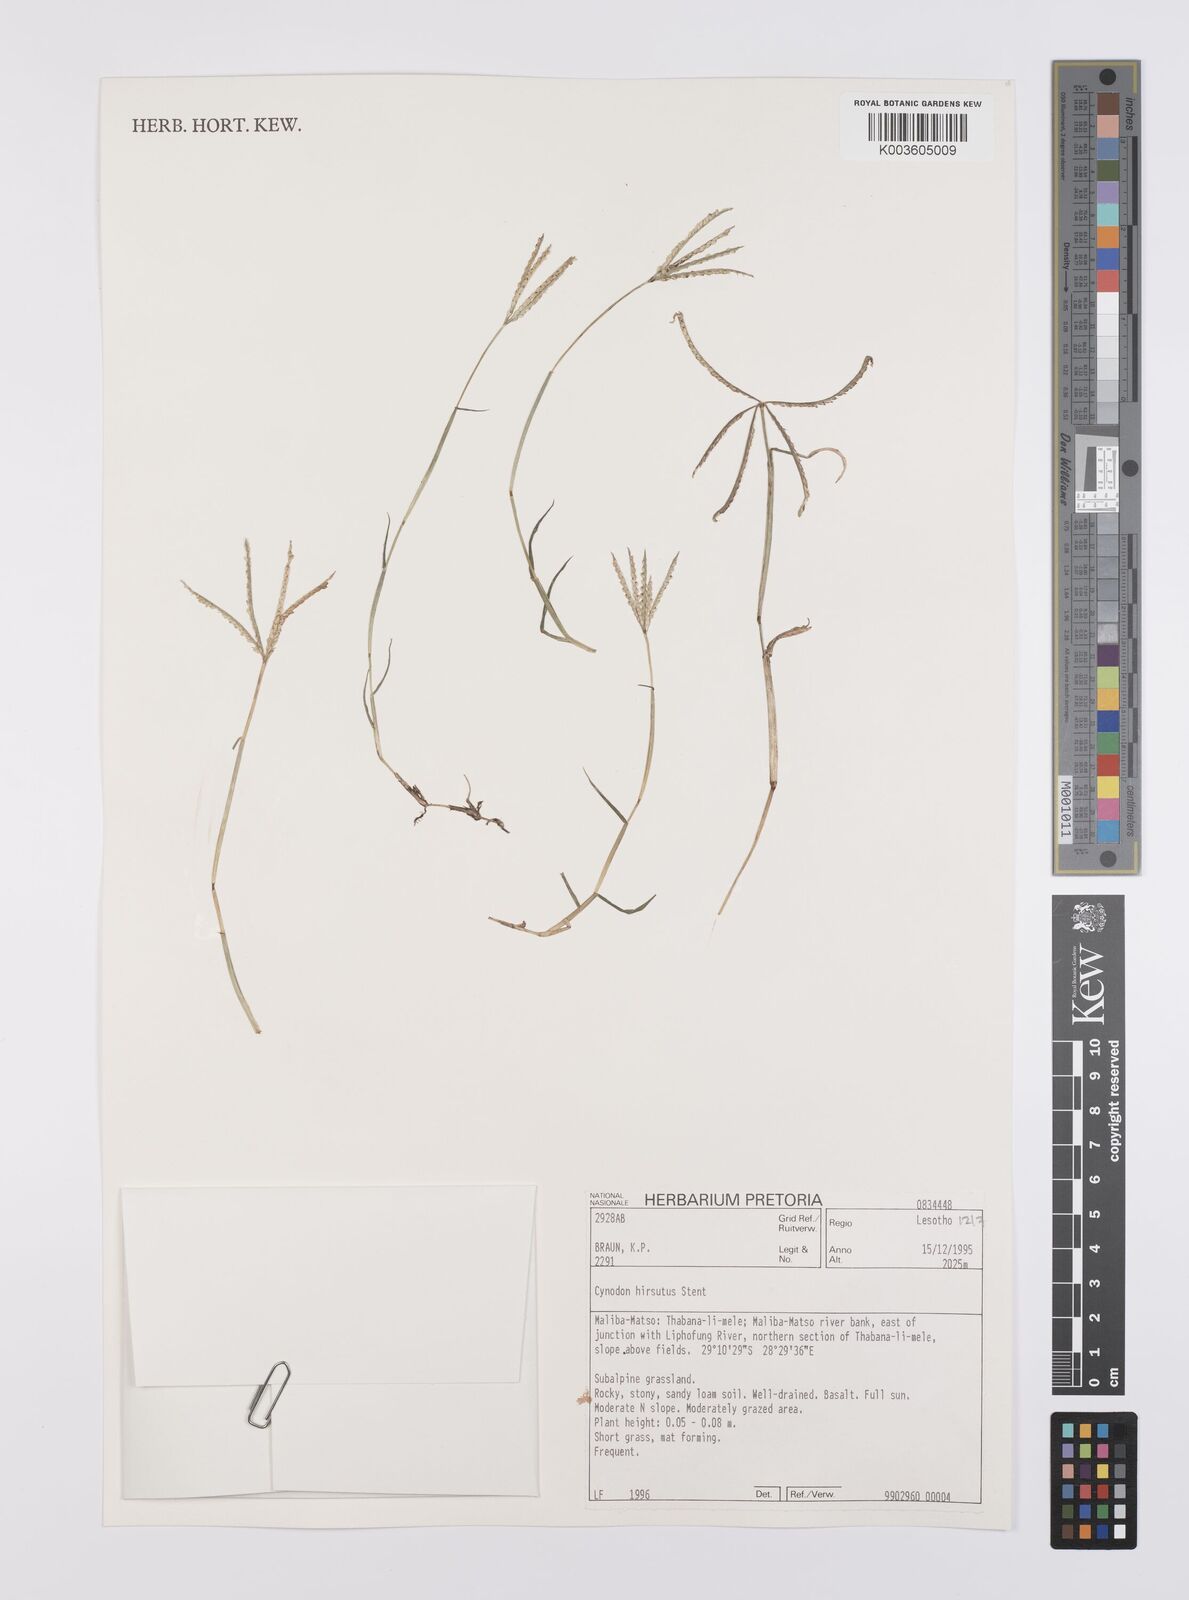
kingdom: Plantae
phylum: Tracheophyta
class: Liliopsida
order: Poales
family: Poaceae
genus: Cynodon
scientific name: Cynodon incompletus
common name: African bermuda-grass
